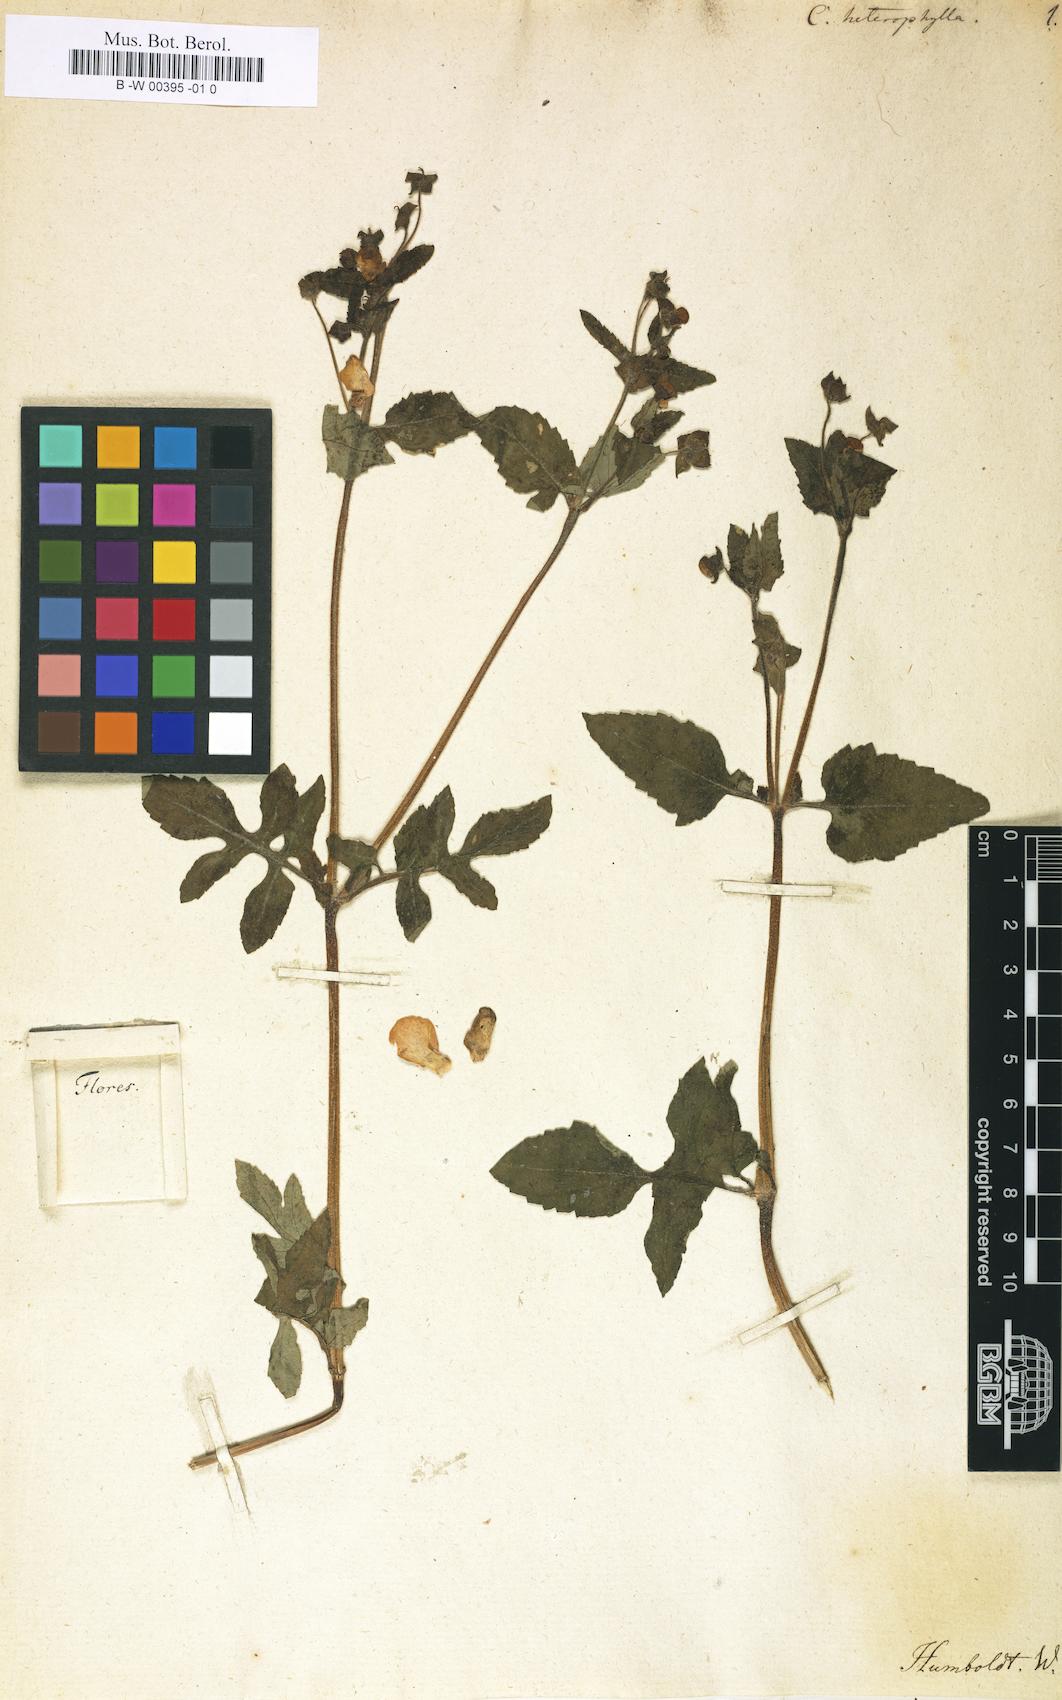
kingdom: Plantae
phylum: Tracheophyta
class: Magnoliopsida
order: Lamiales
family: Calceolariaceae
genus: Calceolaria
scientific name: Calceolaria tripartita
